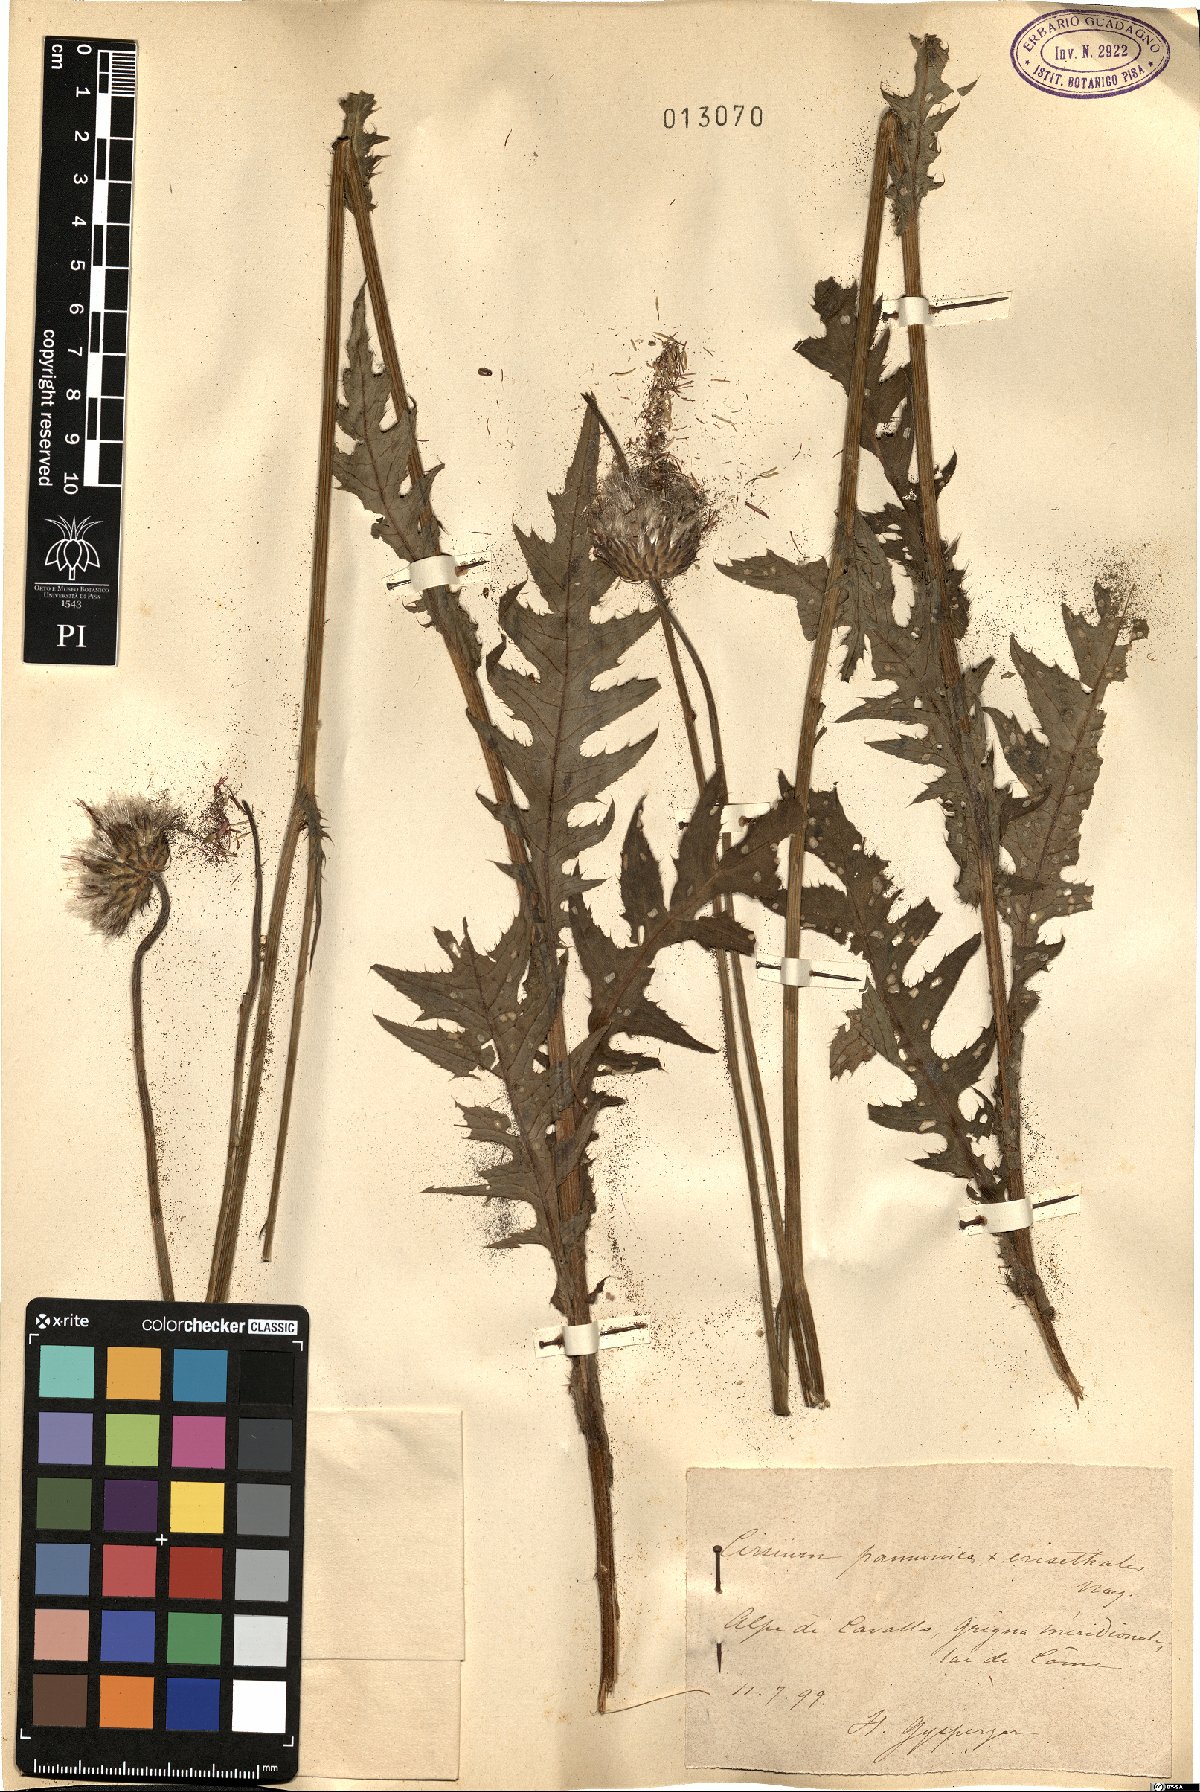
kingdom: Plantae
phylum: Tracheophyta
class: Magnoliopsida
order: Asterales
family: Asteraceae
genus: Cirsium
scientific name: Cirsium pannonicum
